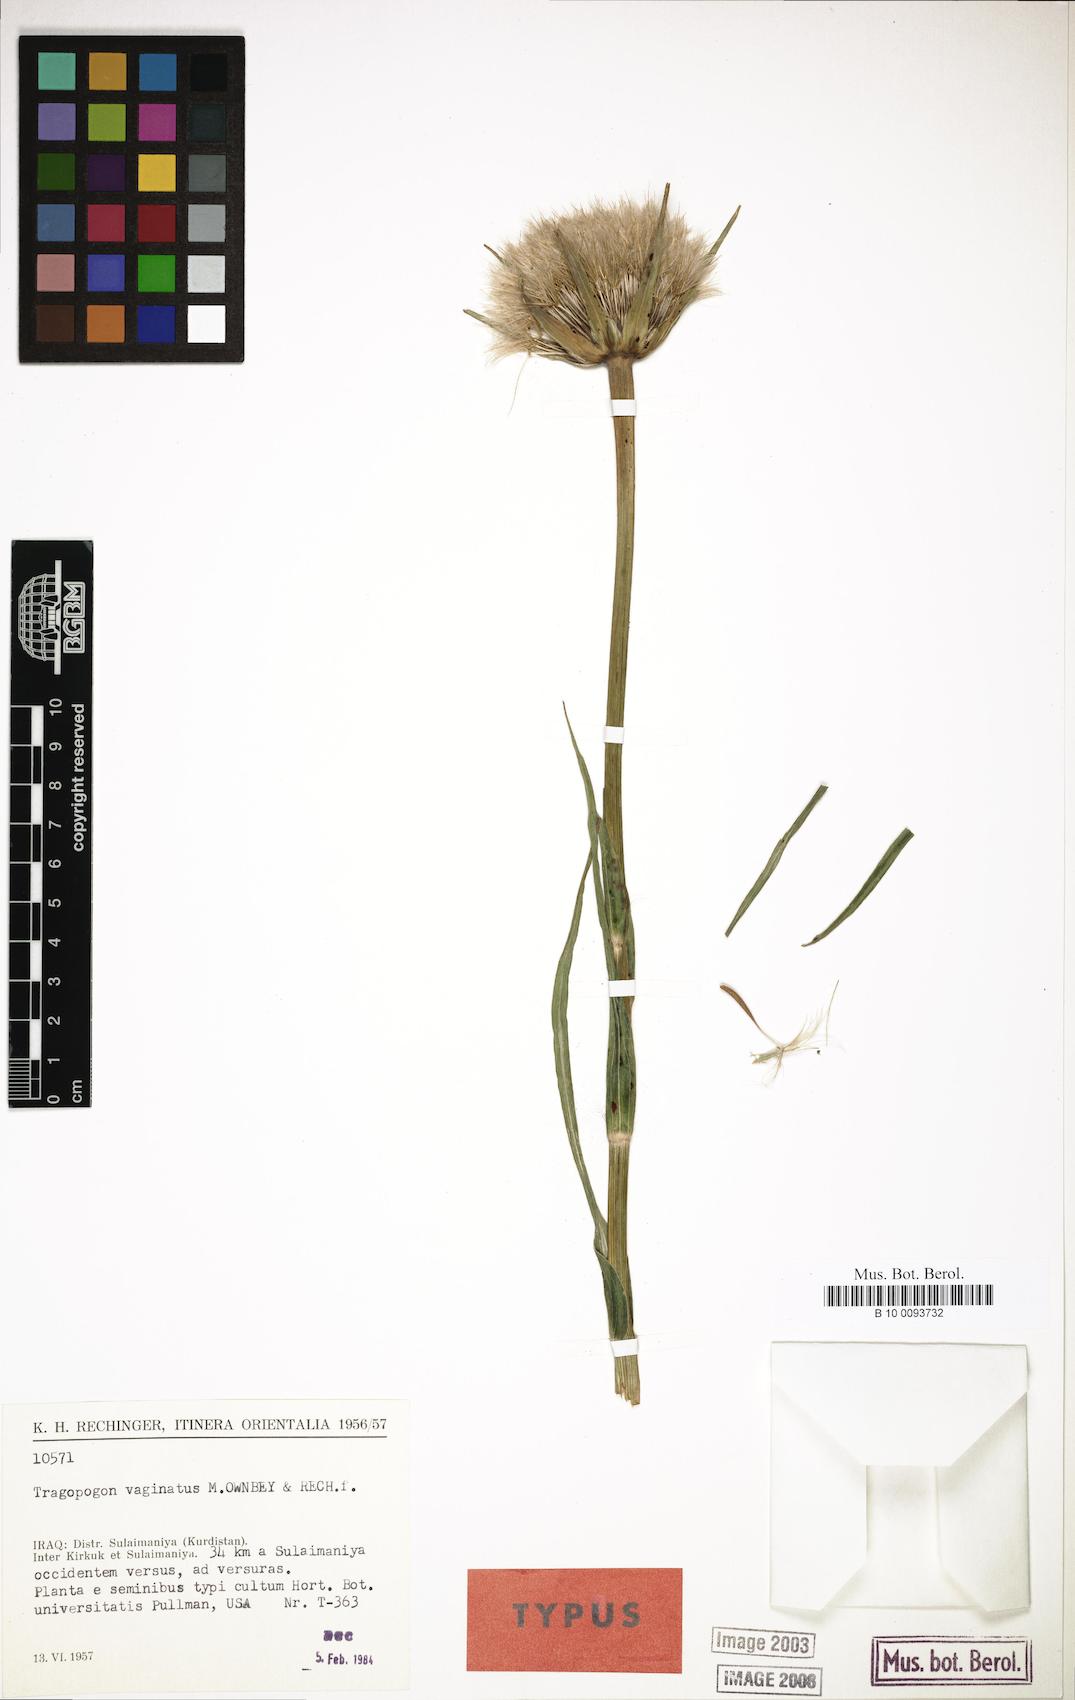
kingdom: Plantae
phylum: Tracheophyta
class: Magnoliopsida
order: Asterales
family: Asteraceae
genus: Tragopogon
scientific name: Tragopogon vaginatus
